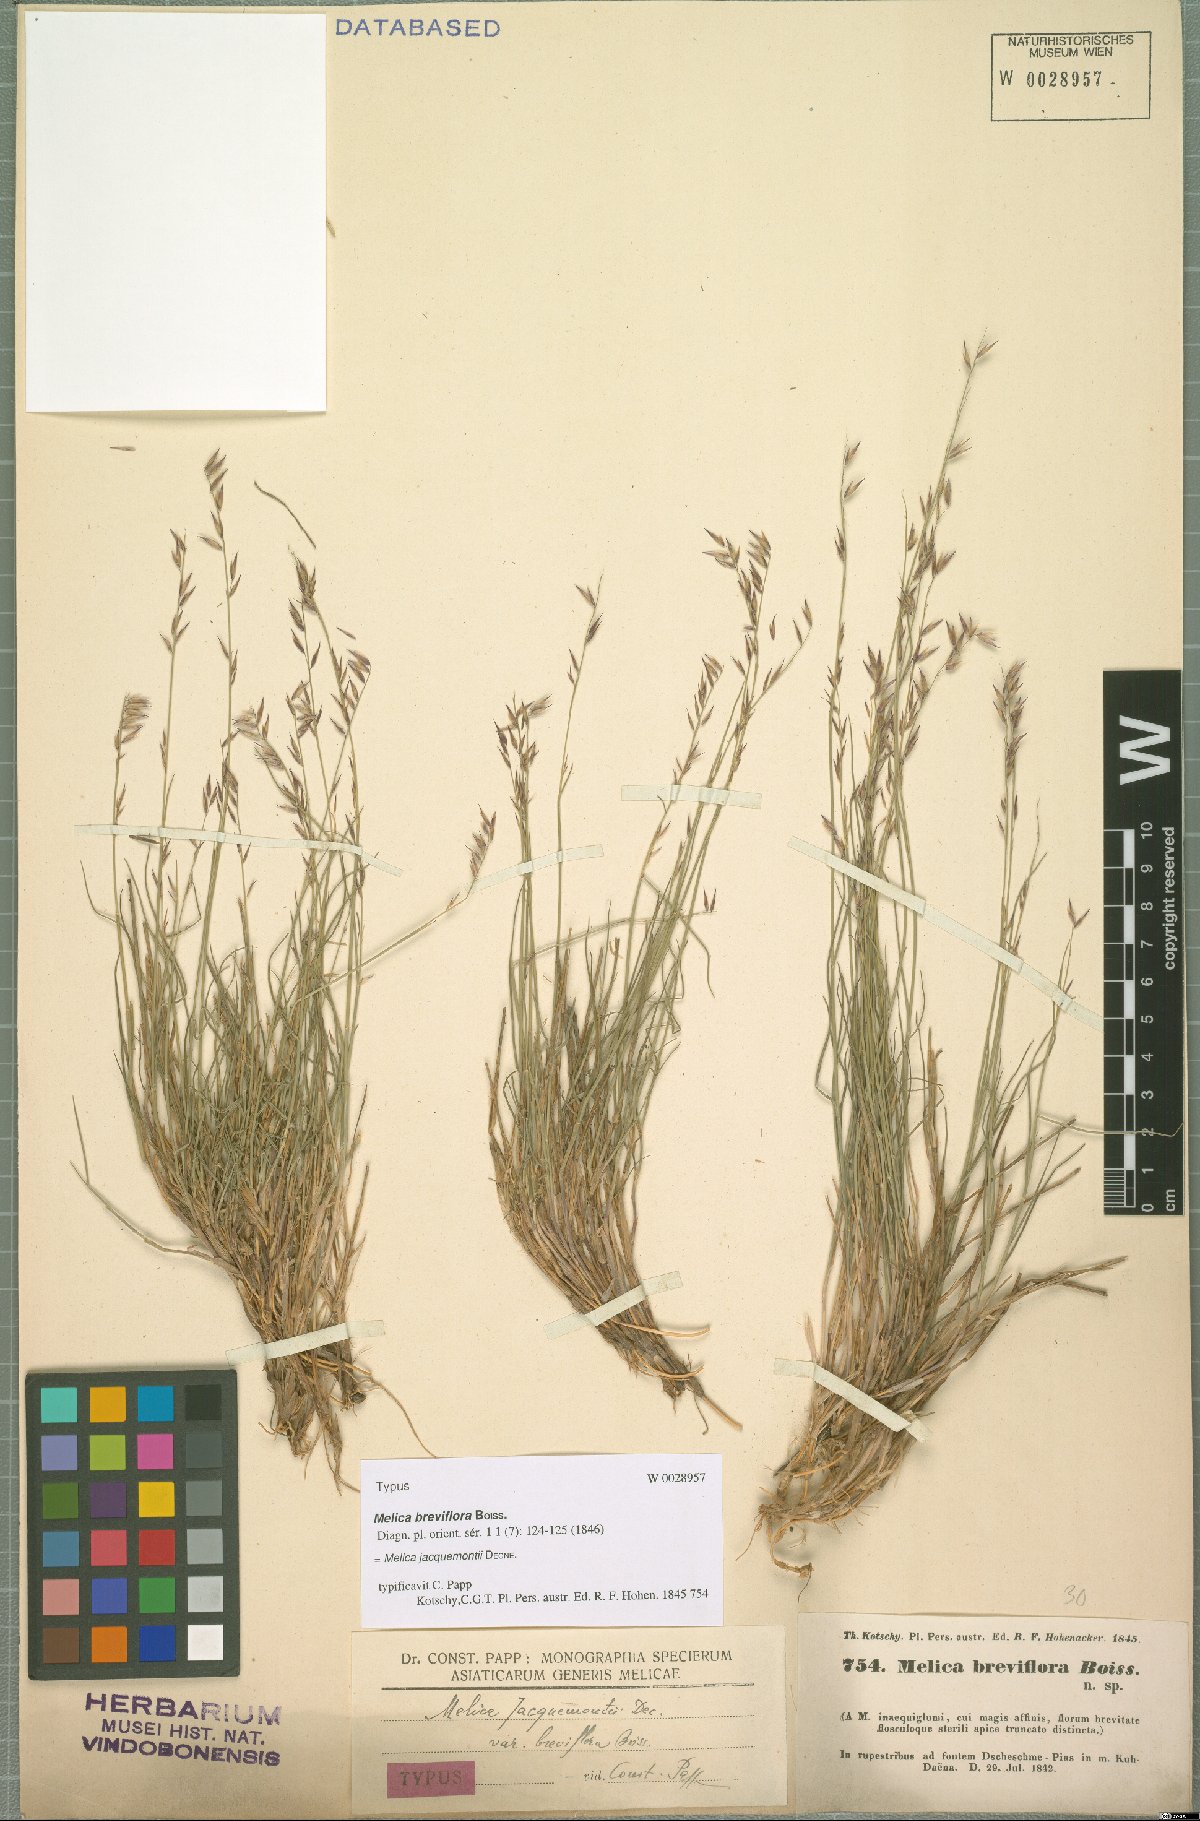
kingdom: Plantae
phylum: Tracheophyta
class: Liliopsida
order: Poales
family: Poaceae
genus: Melica
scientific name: Melica persica
